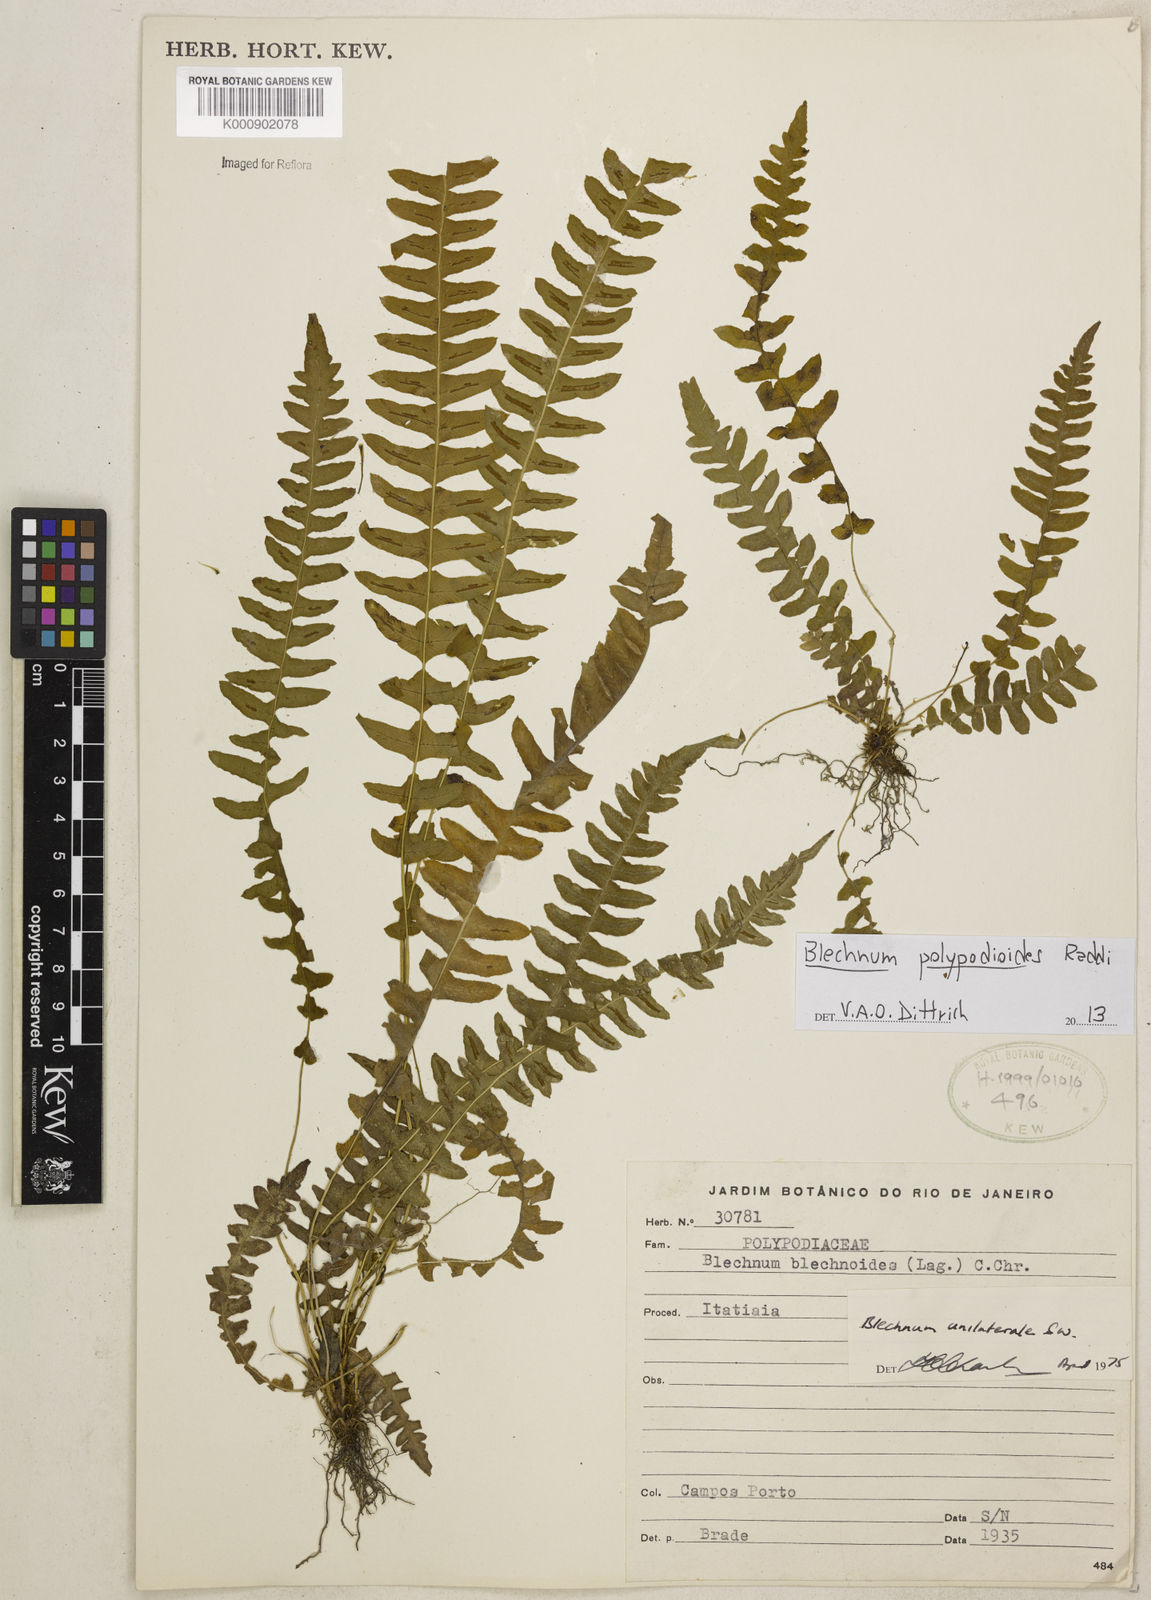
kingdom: Plantae
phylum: Tracheophyta
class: Polypodiopsida
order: Polypodiales
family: Blechnaceae
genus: Blechnum
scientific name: Blechnum polypodioides
